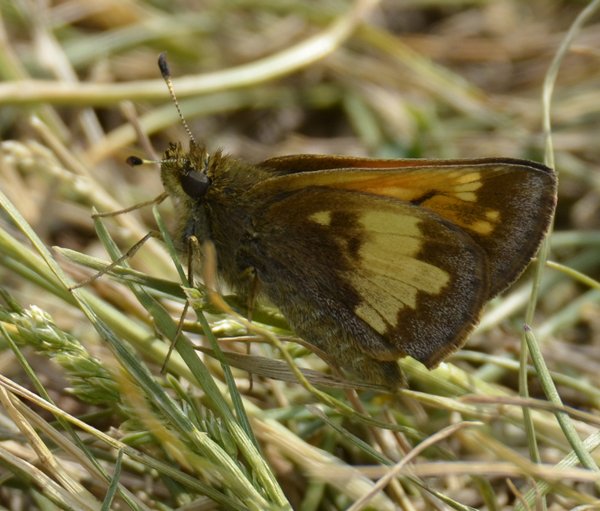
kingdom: Animalia
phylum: Arthropoda
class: Insecta
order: Lepidoptera
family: Hesperiidae
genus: Lon
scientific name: Lon hobomok
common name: Hobomok Skipper
